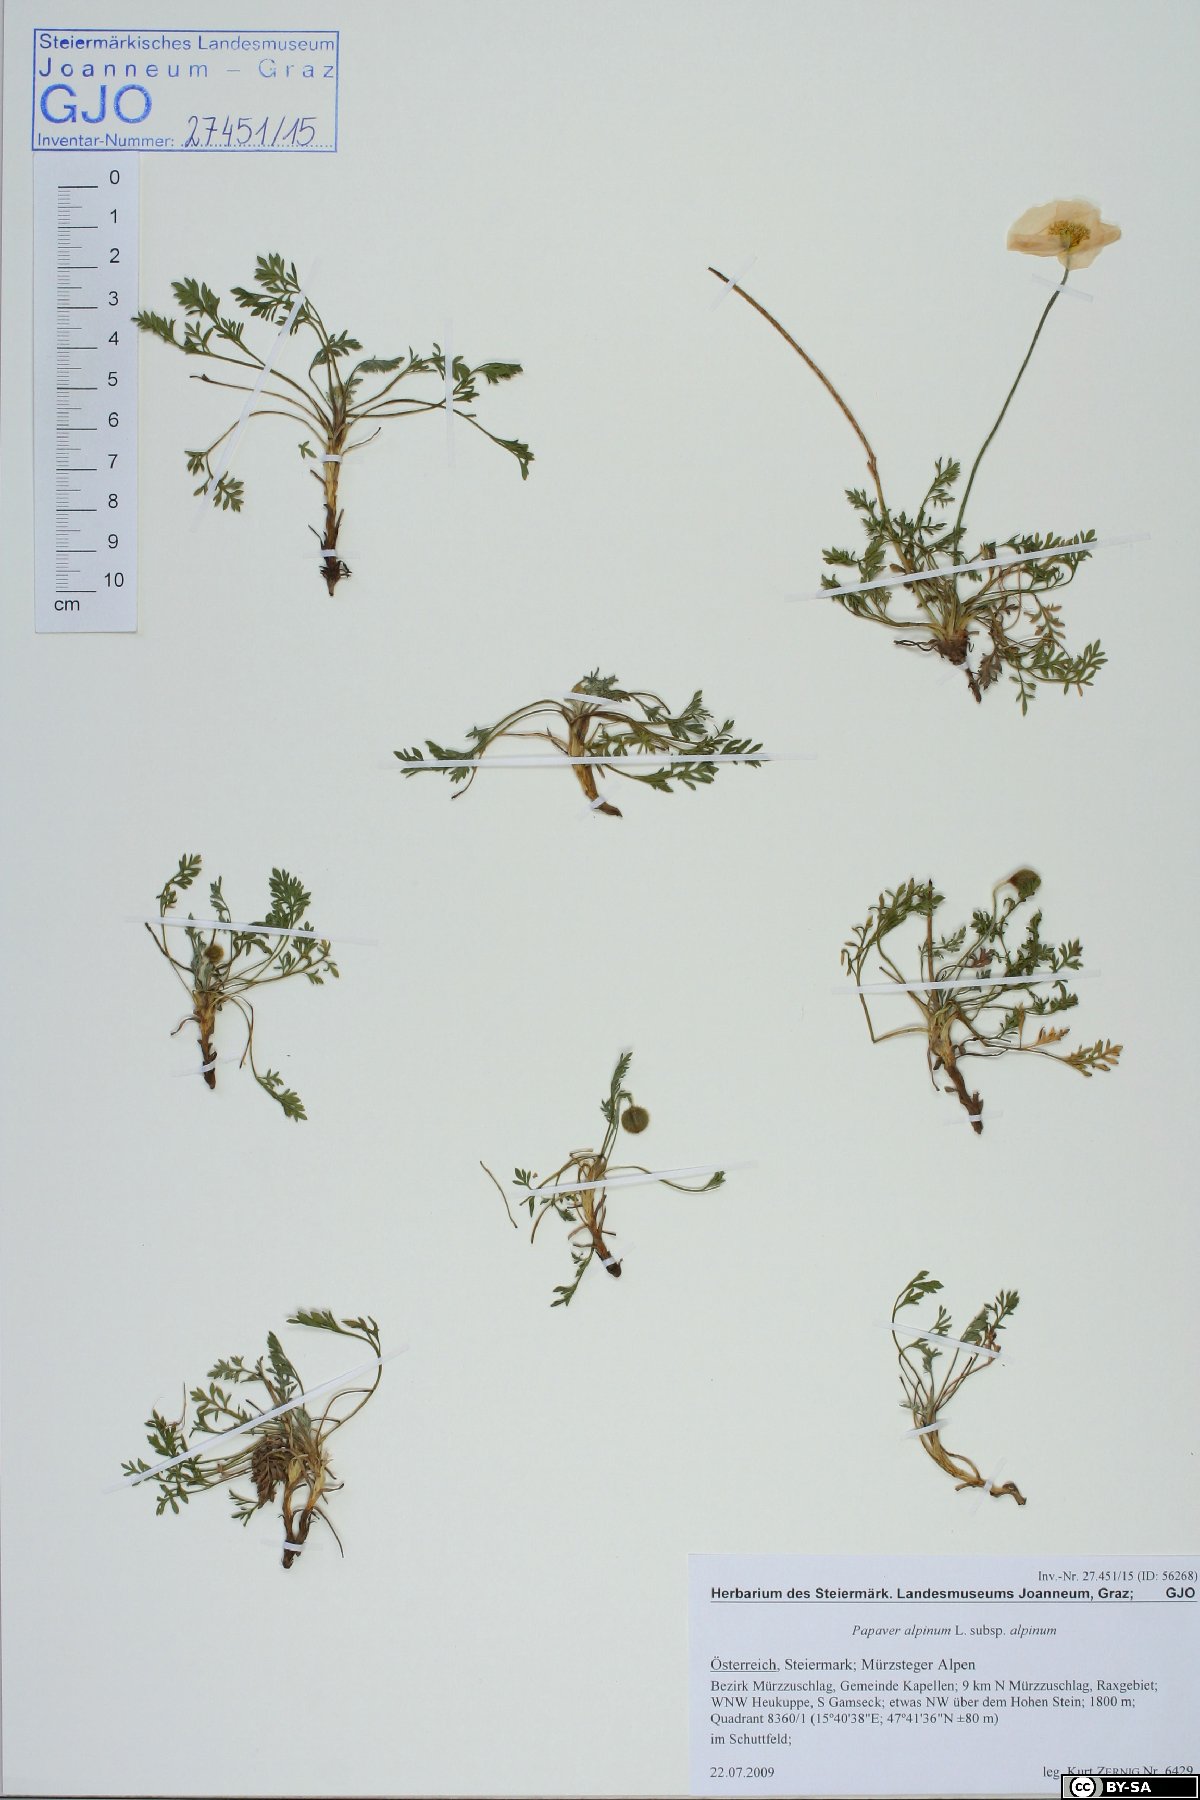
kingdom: Plantae
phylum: Tracheophyta
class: Magnoliopsida
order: Ranunculales
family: Papaveraceae
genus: Papaver
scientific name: Papaver alpinum
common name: Austrian poppy
